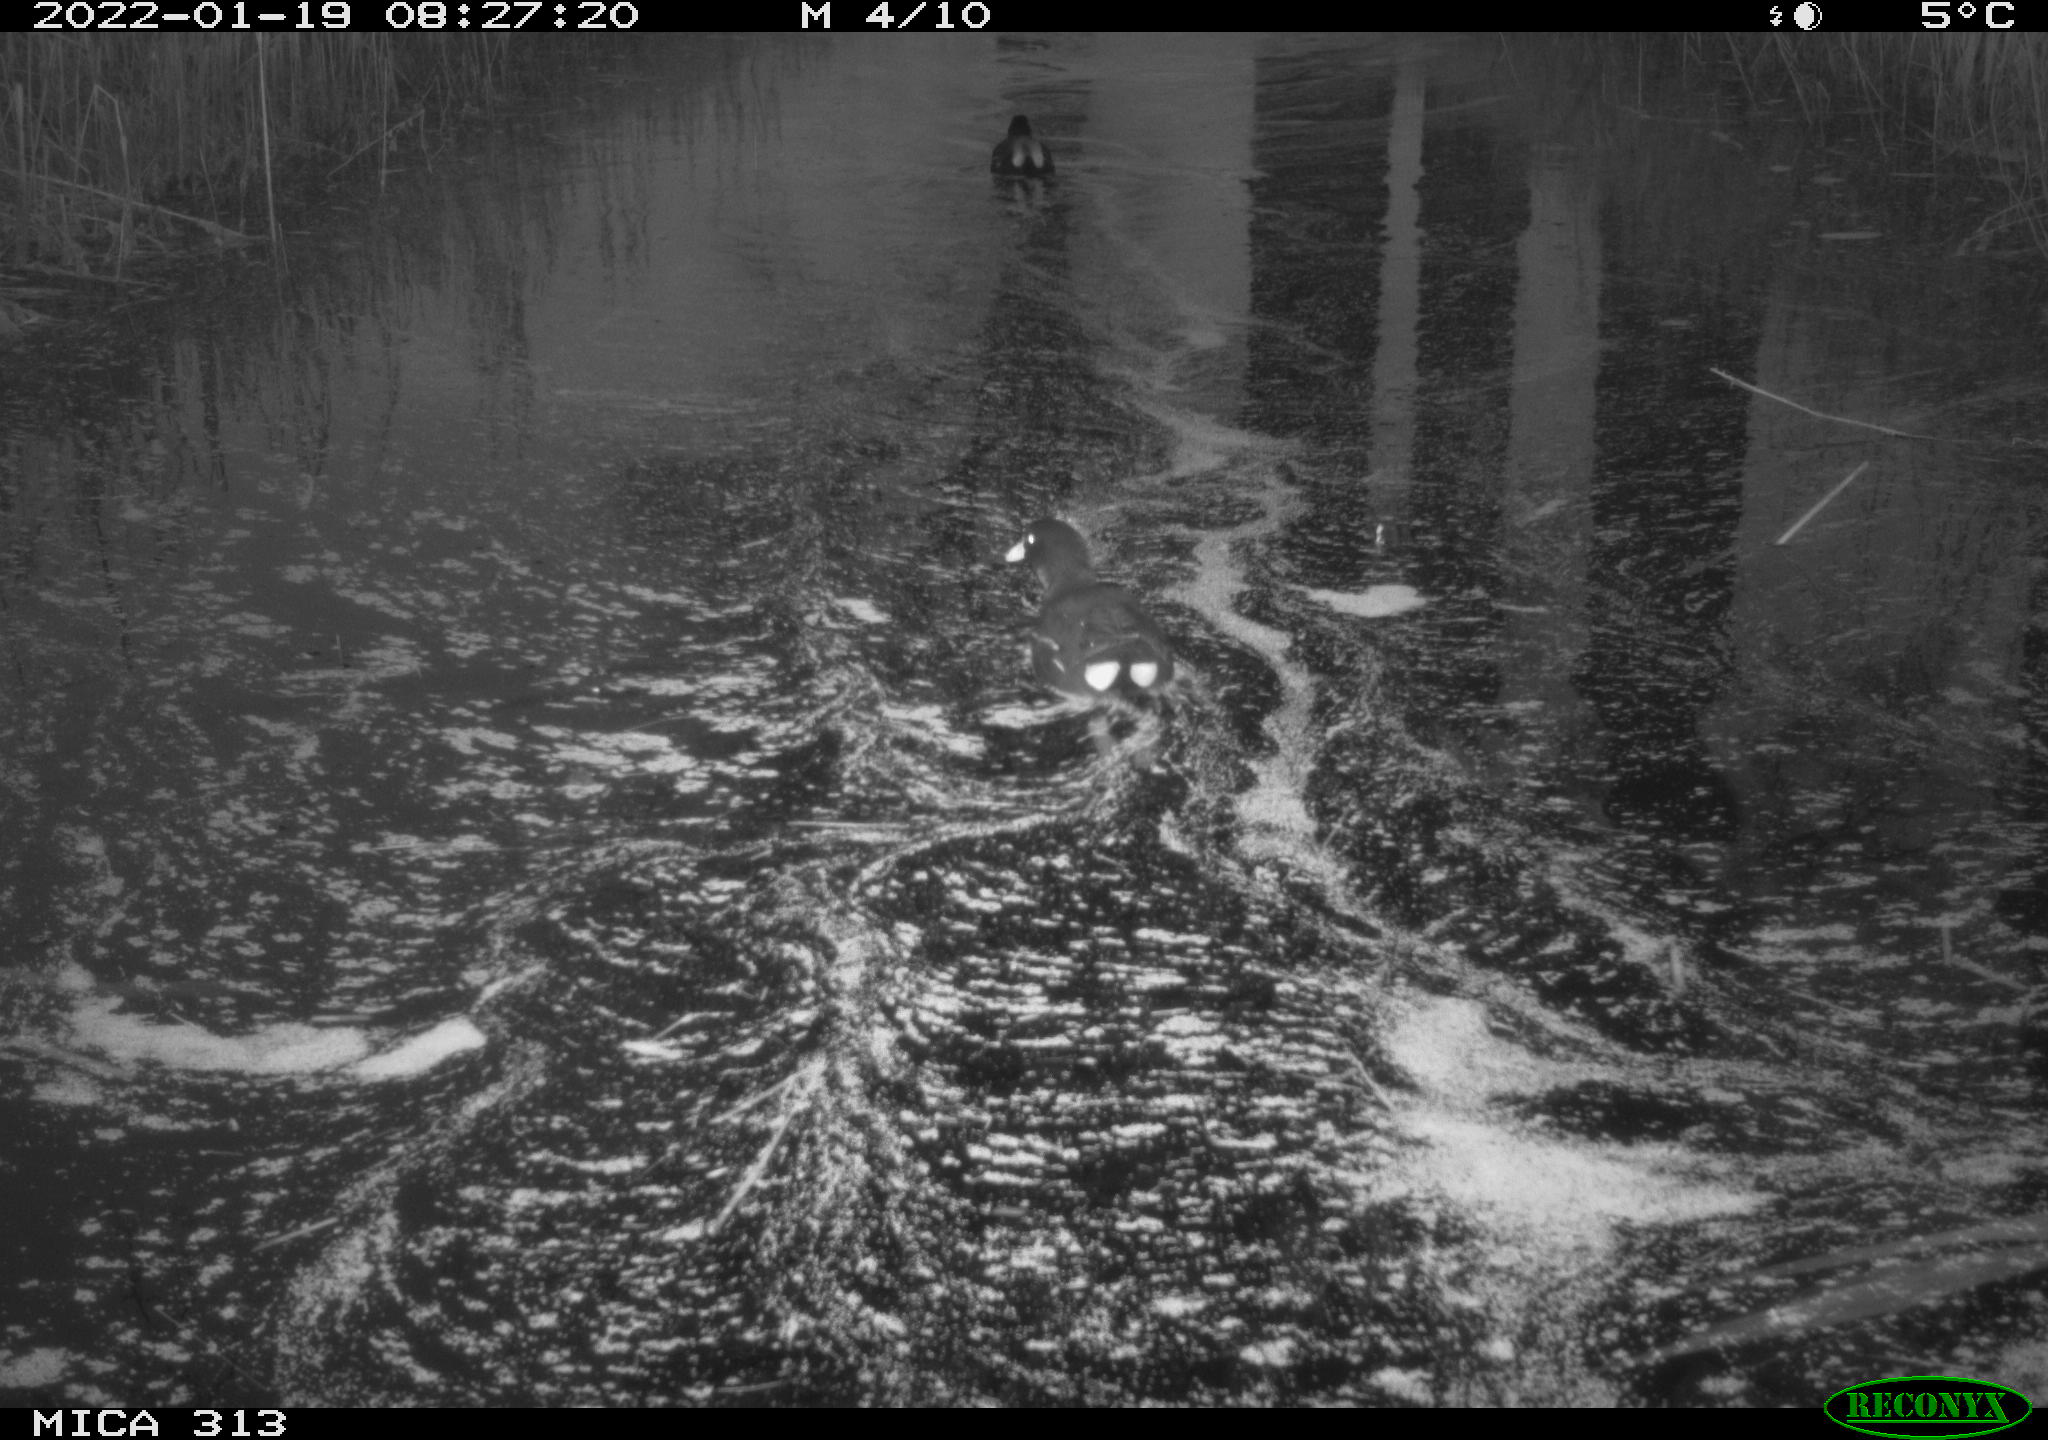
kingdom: Animalia
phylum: Chordata
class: Aves
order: Anseriformes
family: Anatidae
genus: Anas
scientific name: Anas
